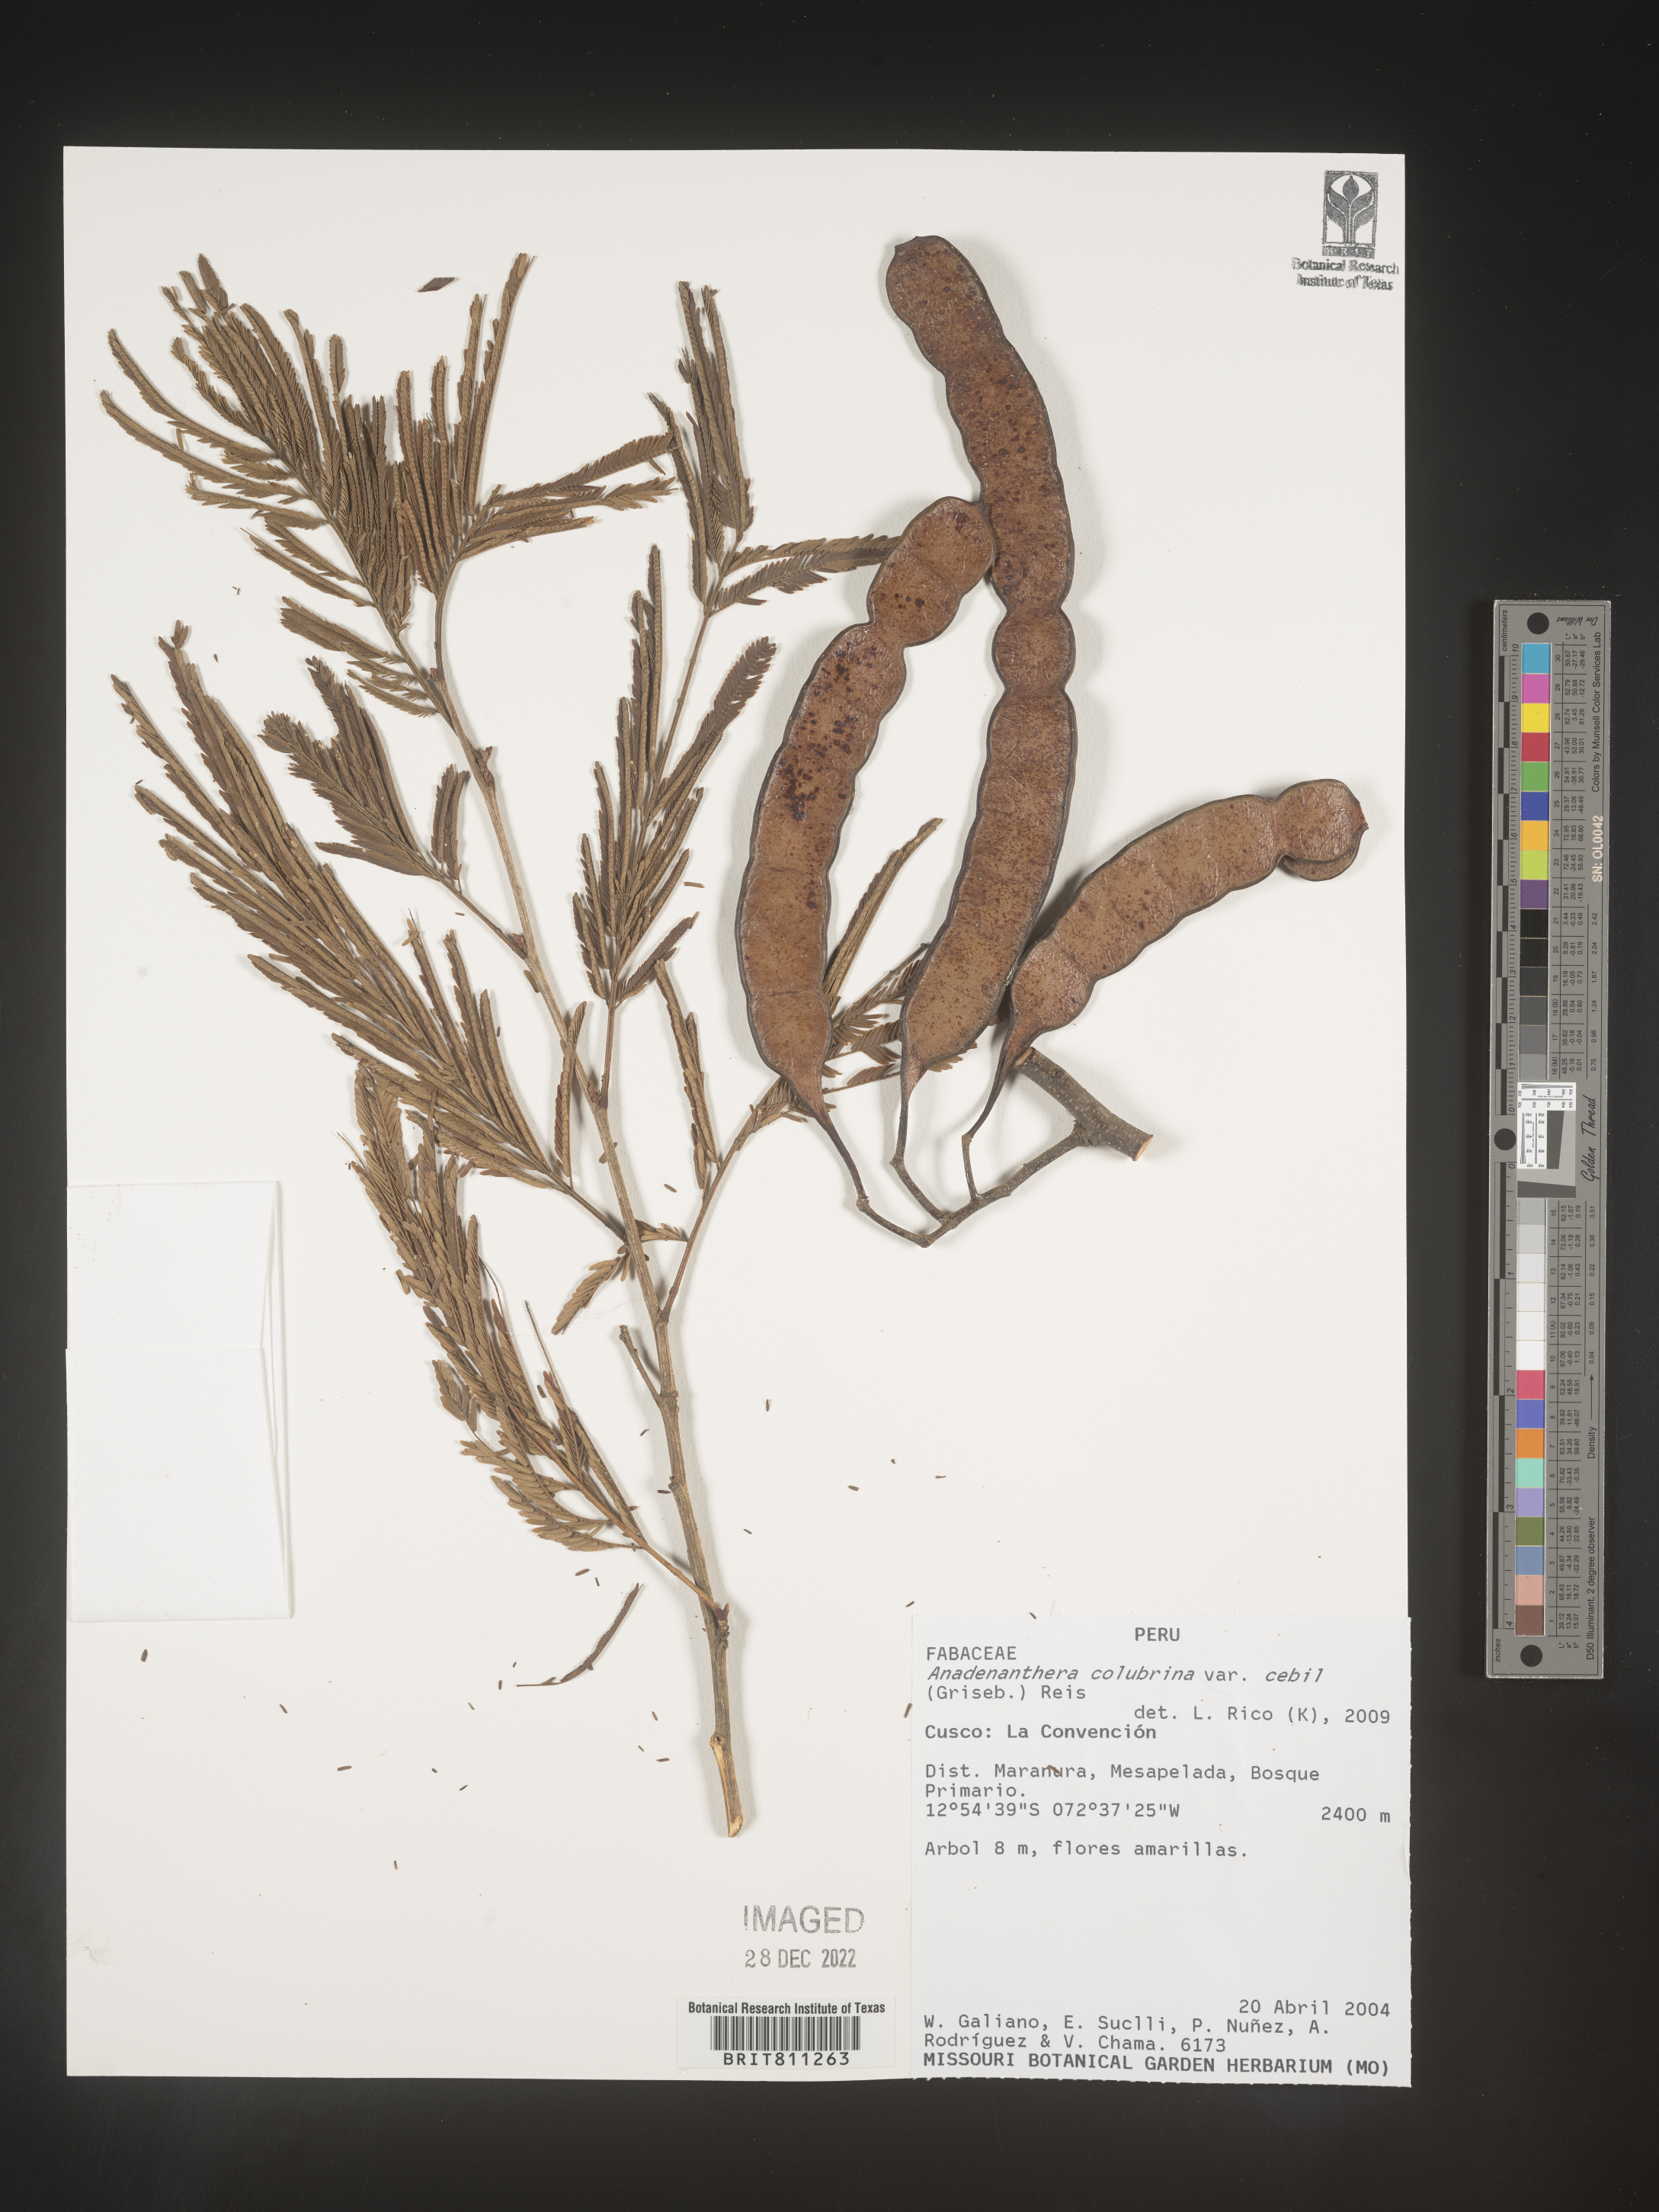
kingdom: Plantae
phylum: Tracheophyta
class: Magnoliopsida
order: Fabales
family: Fabaceae
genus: Anadenanthera
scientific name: Anadenanthera
